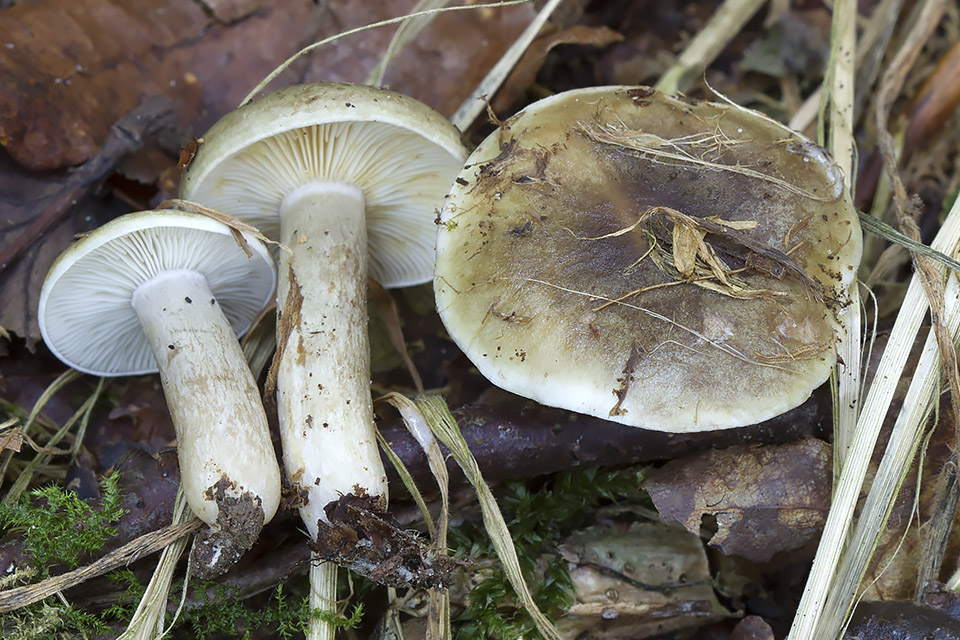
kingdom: Fungi
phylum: Basidiomycota
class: Agaricomycetes
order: Russulales
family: Russulaceae
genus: Lactarius
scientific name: Lactarius fluens
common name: lysrandet mælkehat
